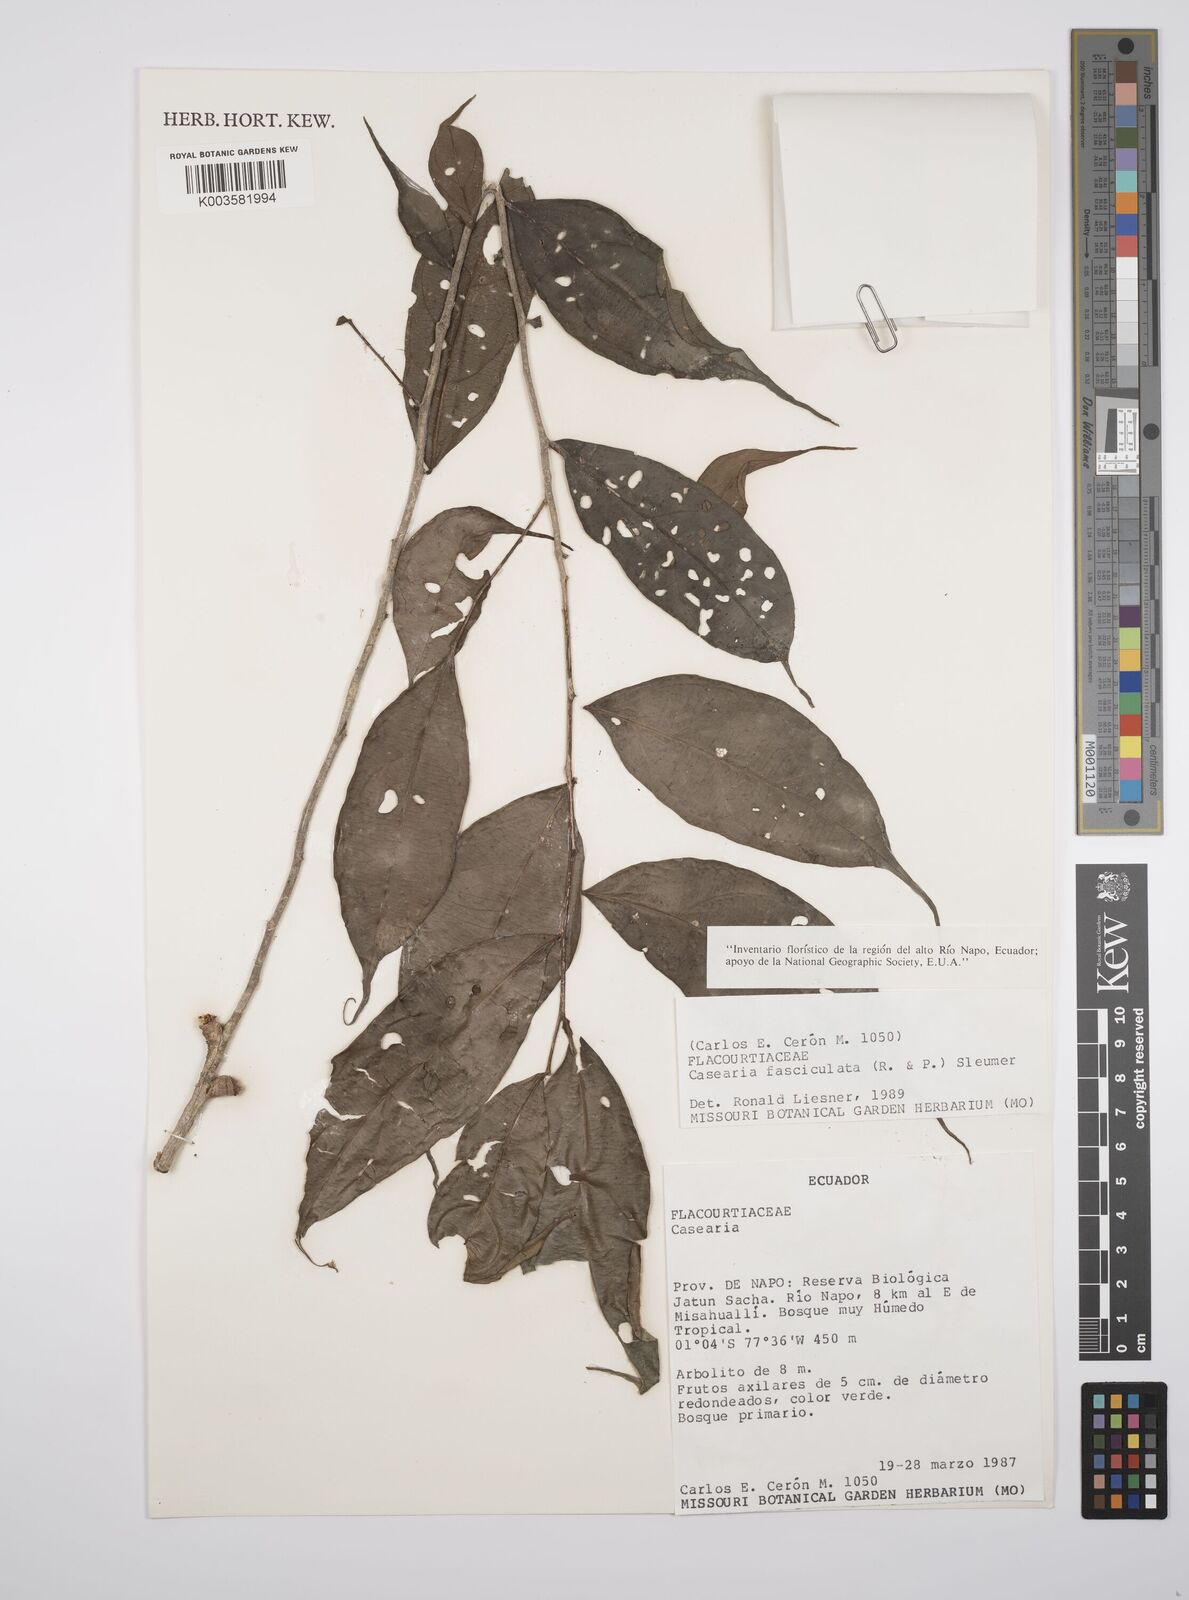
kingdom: Plantae
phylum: Tracheophyta
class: Magnoliopsida
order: Malpighiales
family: Salicaceae
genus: Casearia
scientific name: Casearia
